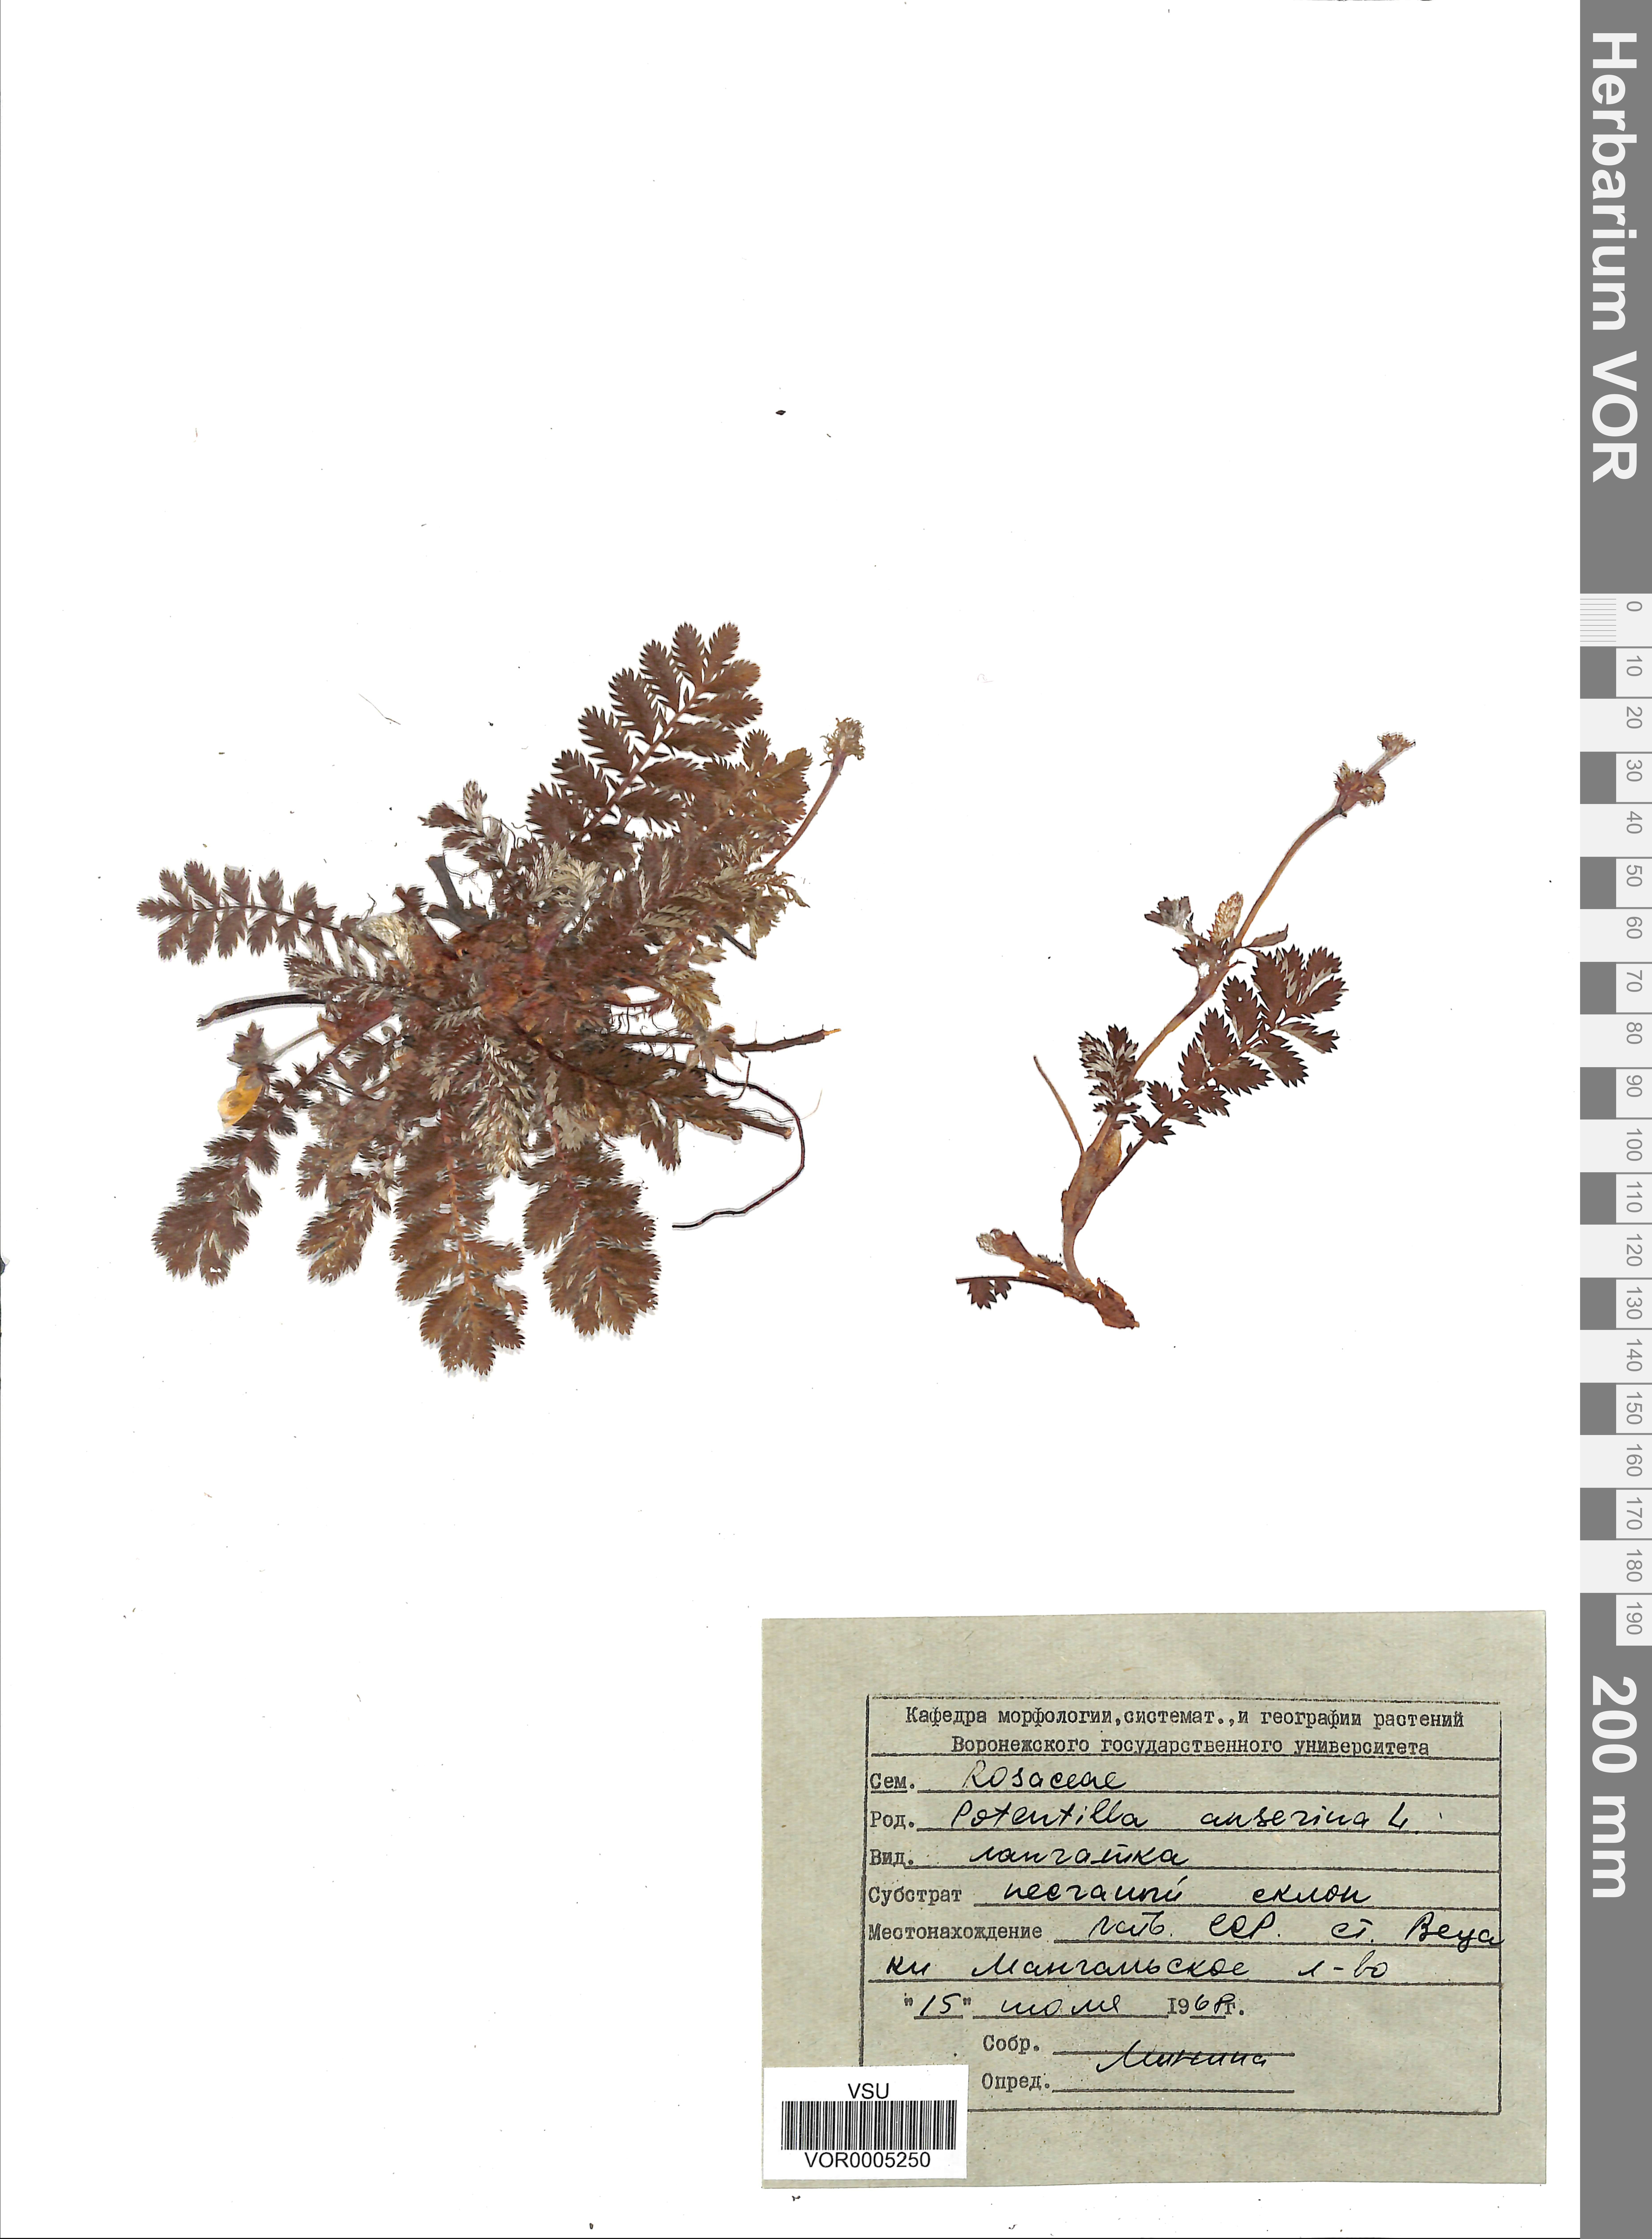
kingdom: Plantae
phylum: Tracheophyta
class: Magnoliopsida
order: Rosales
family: Rosaceae
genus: Argentina
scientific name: Argentina anserina
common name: Common silverweed
